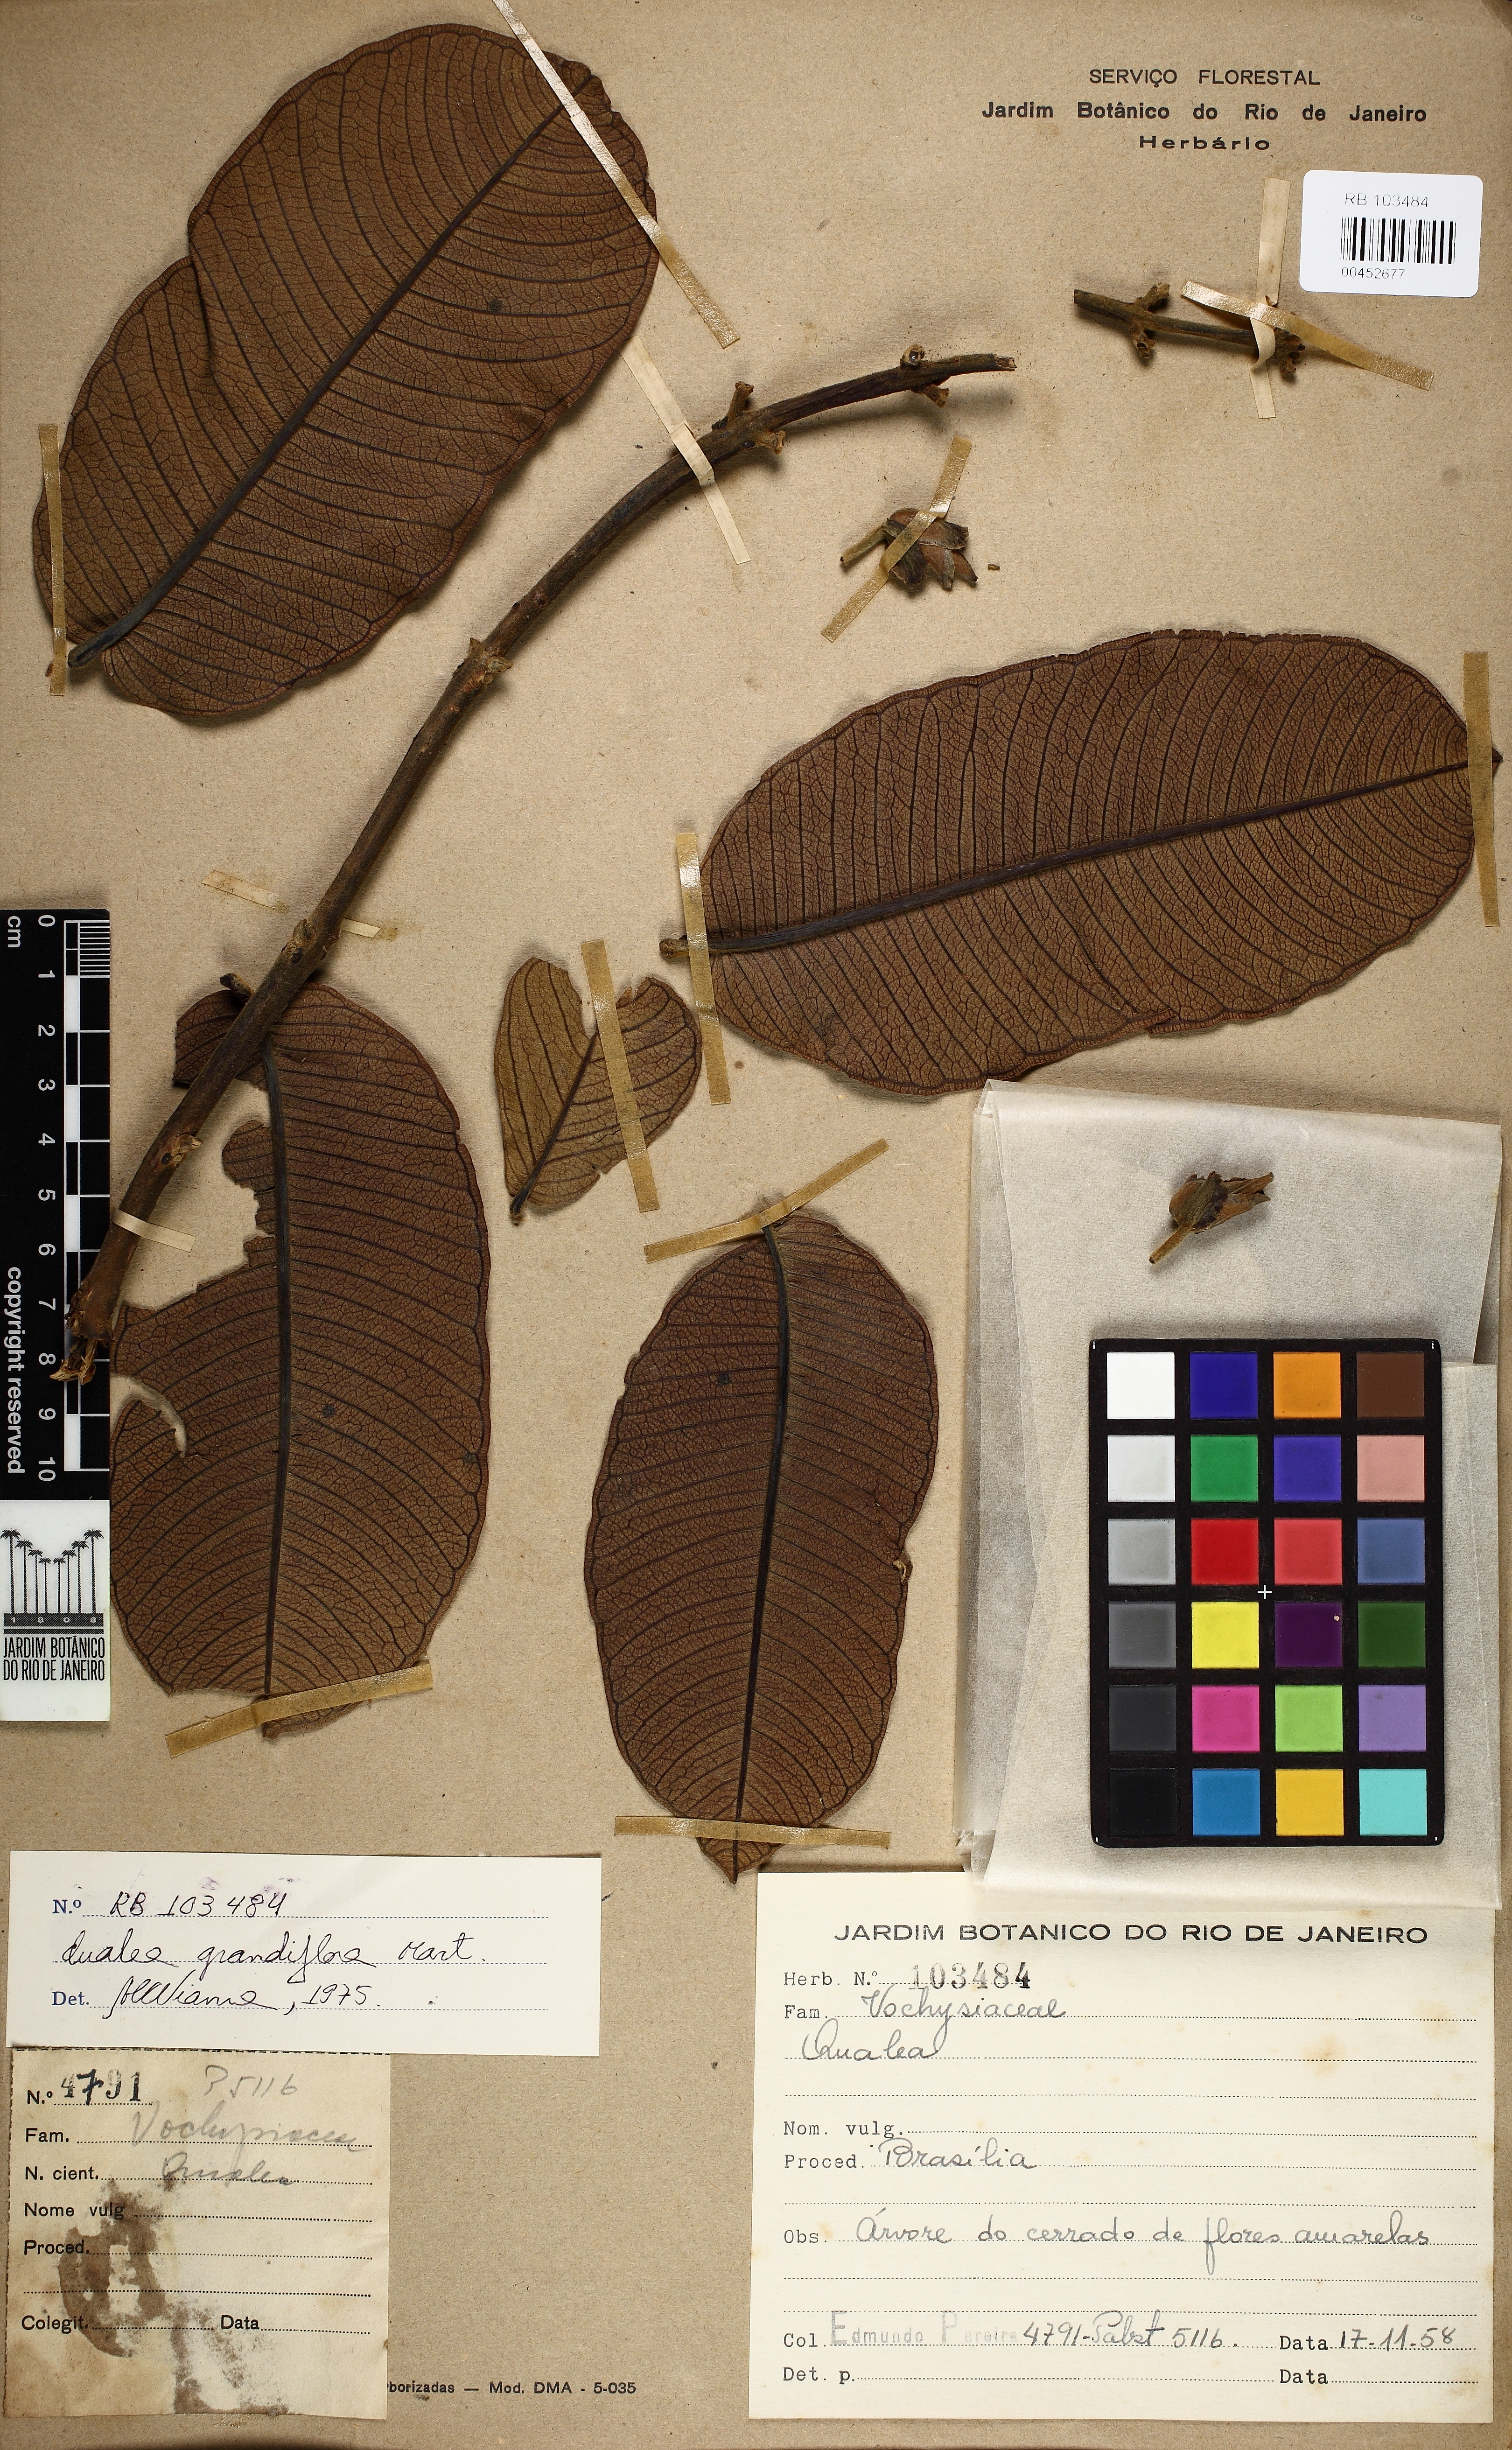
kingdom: Plantae
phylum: Tracheophyta
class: Magnoliopsida
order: Myrtales
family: Vochysiaceae
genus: Qualea
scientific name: Qualea grandiflora
